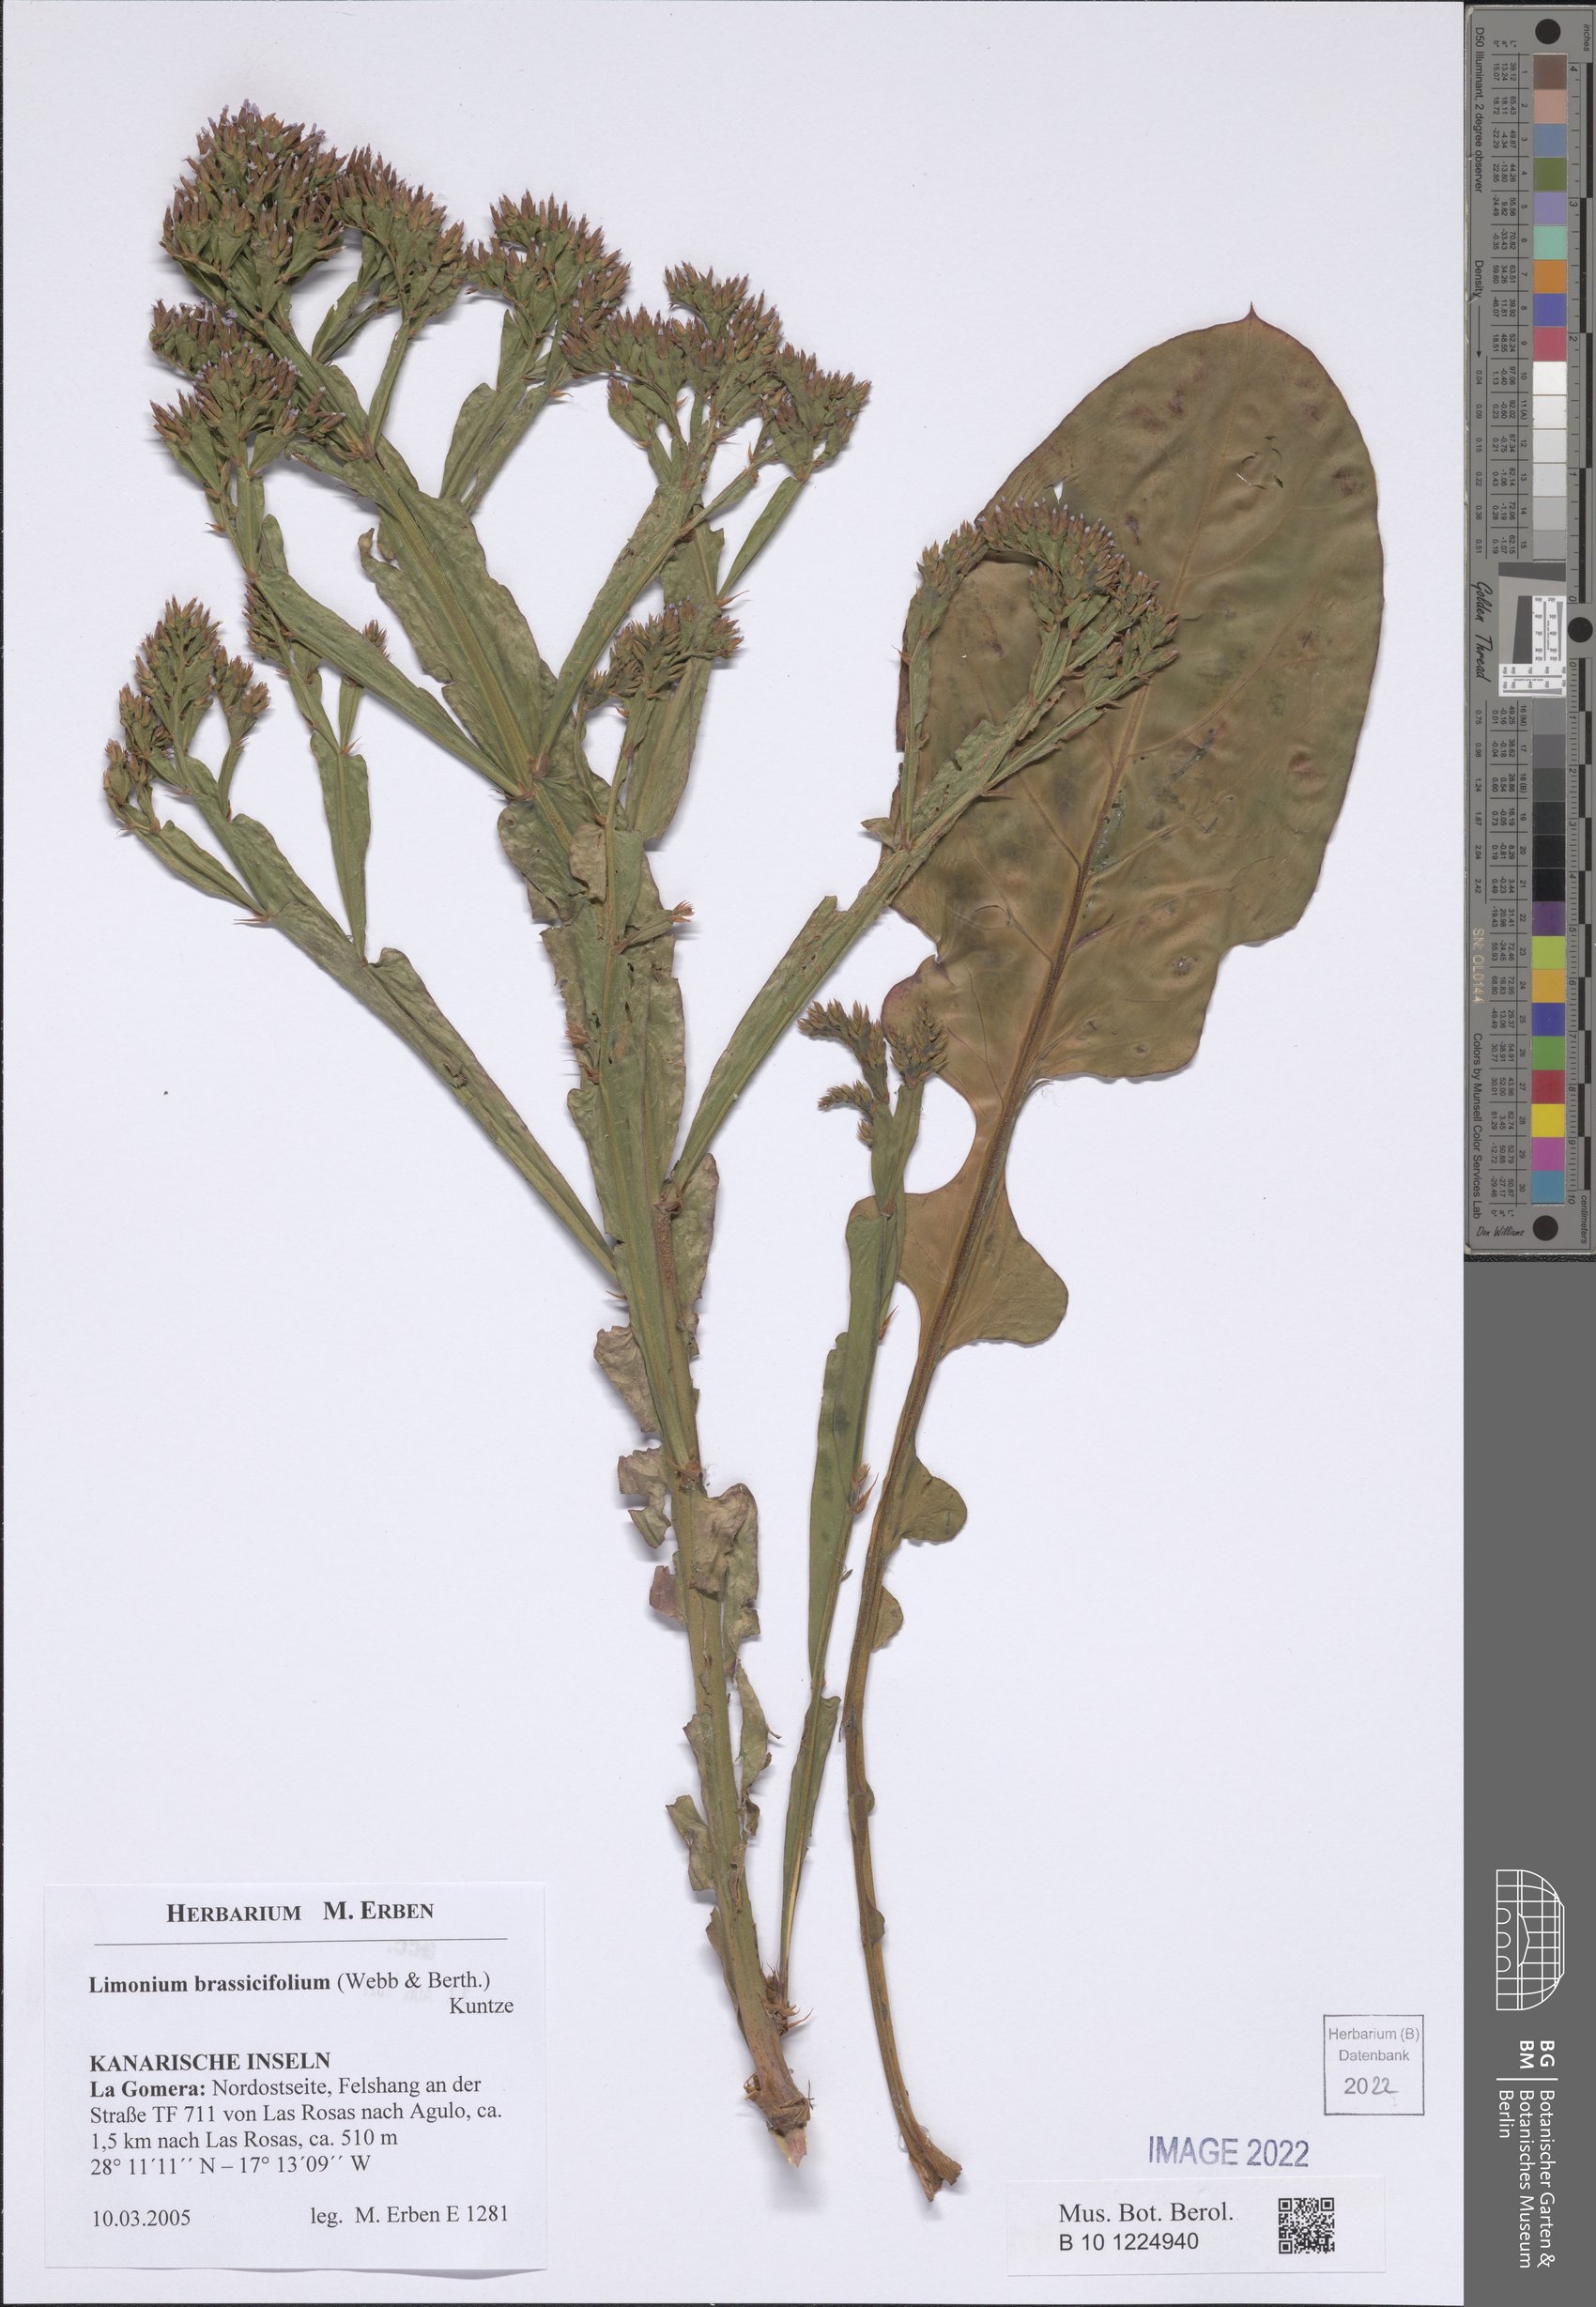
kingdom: Plantae
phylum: Tracheophyta
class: Magnoliopsida
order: Caryophyllales
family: Plumbaginaceae
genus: Limonium
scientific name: Limonium brassicifolium
